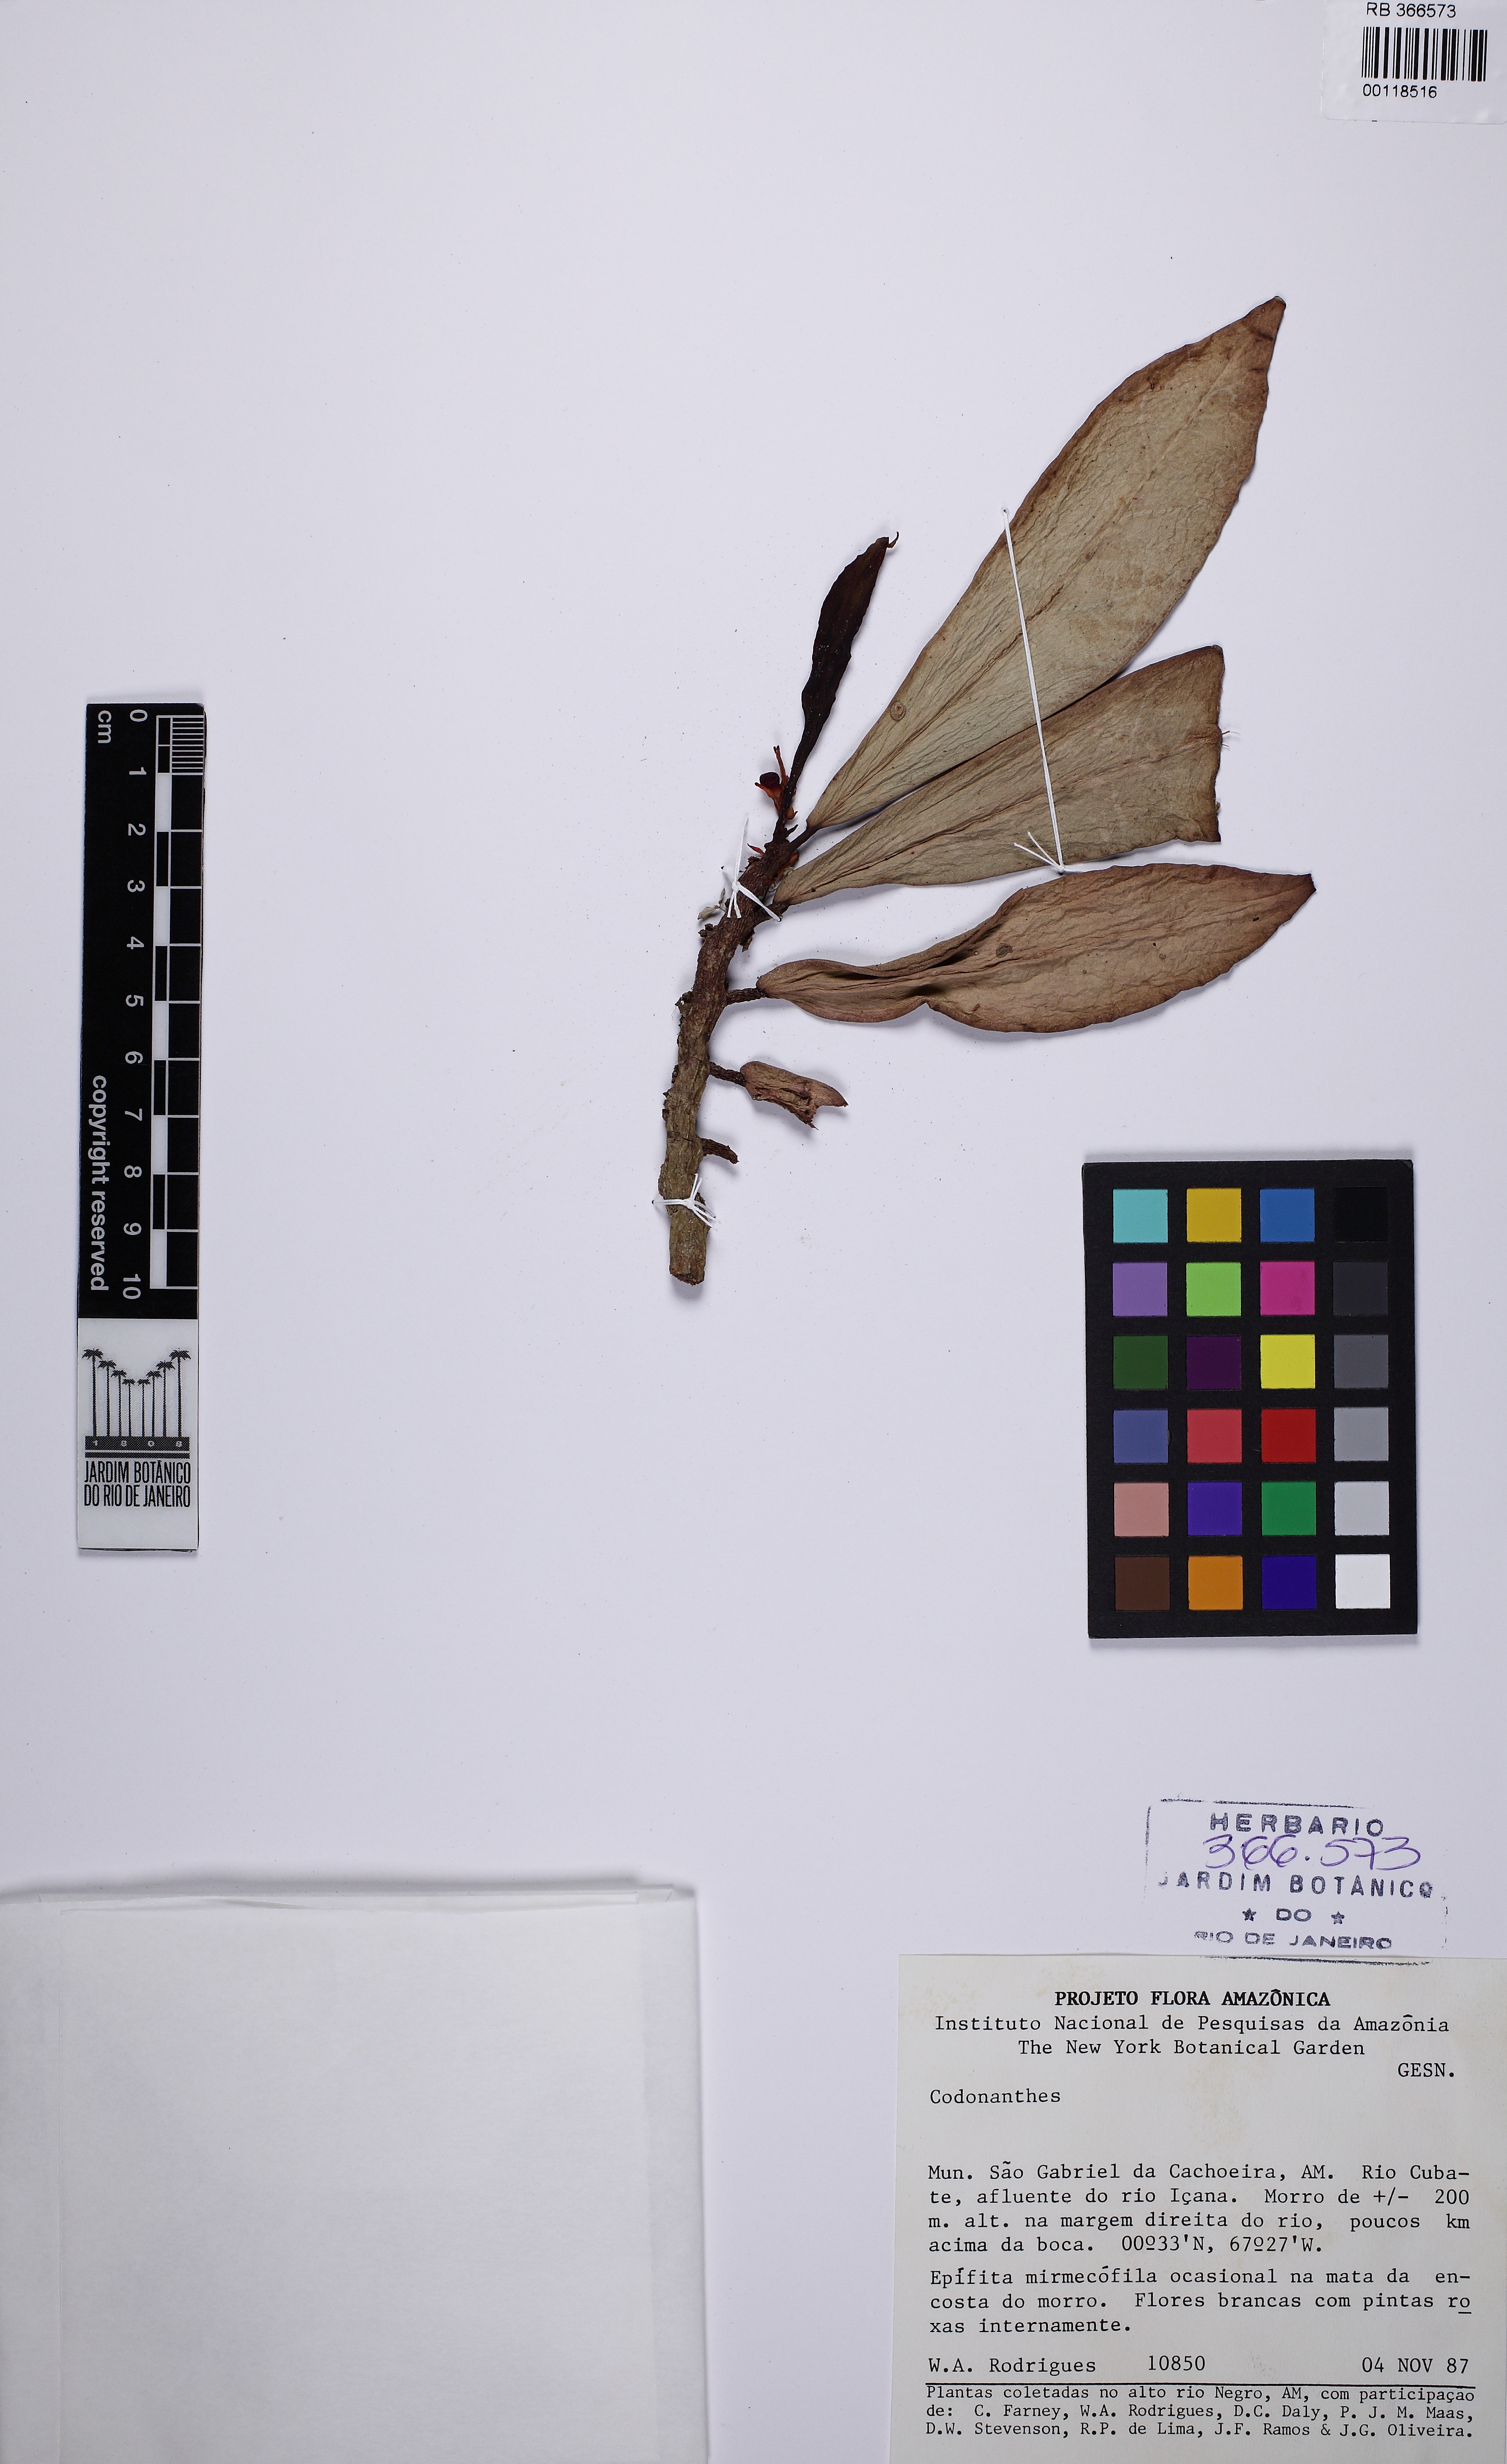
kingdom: Plantae
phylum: Tracheophyta
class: Magnoliopsida
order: Lamiales
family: Gesneriaceae
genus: Codonanthopsis
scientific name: Codonanthopsis ulei
